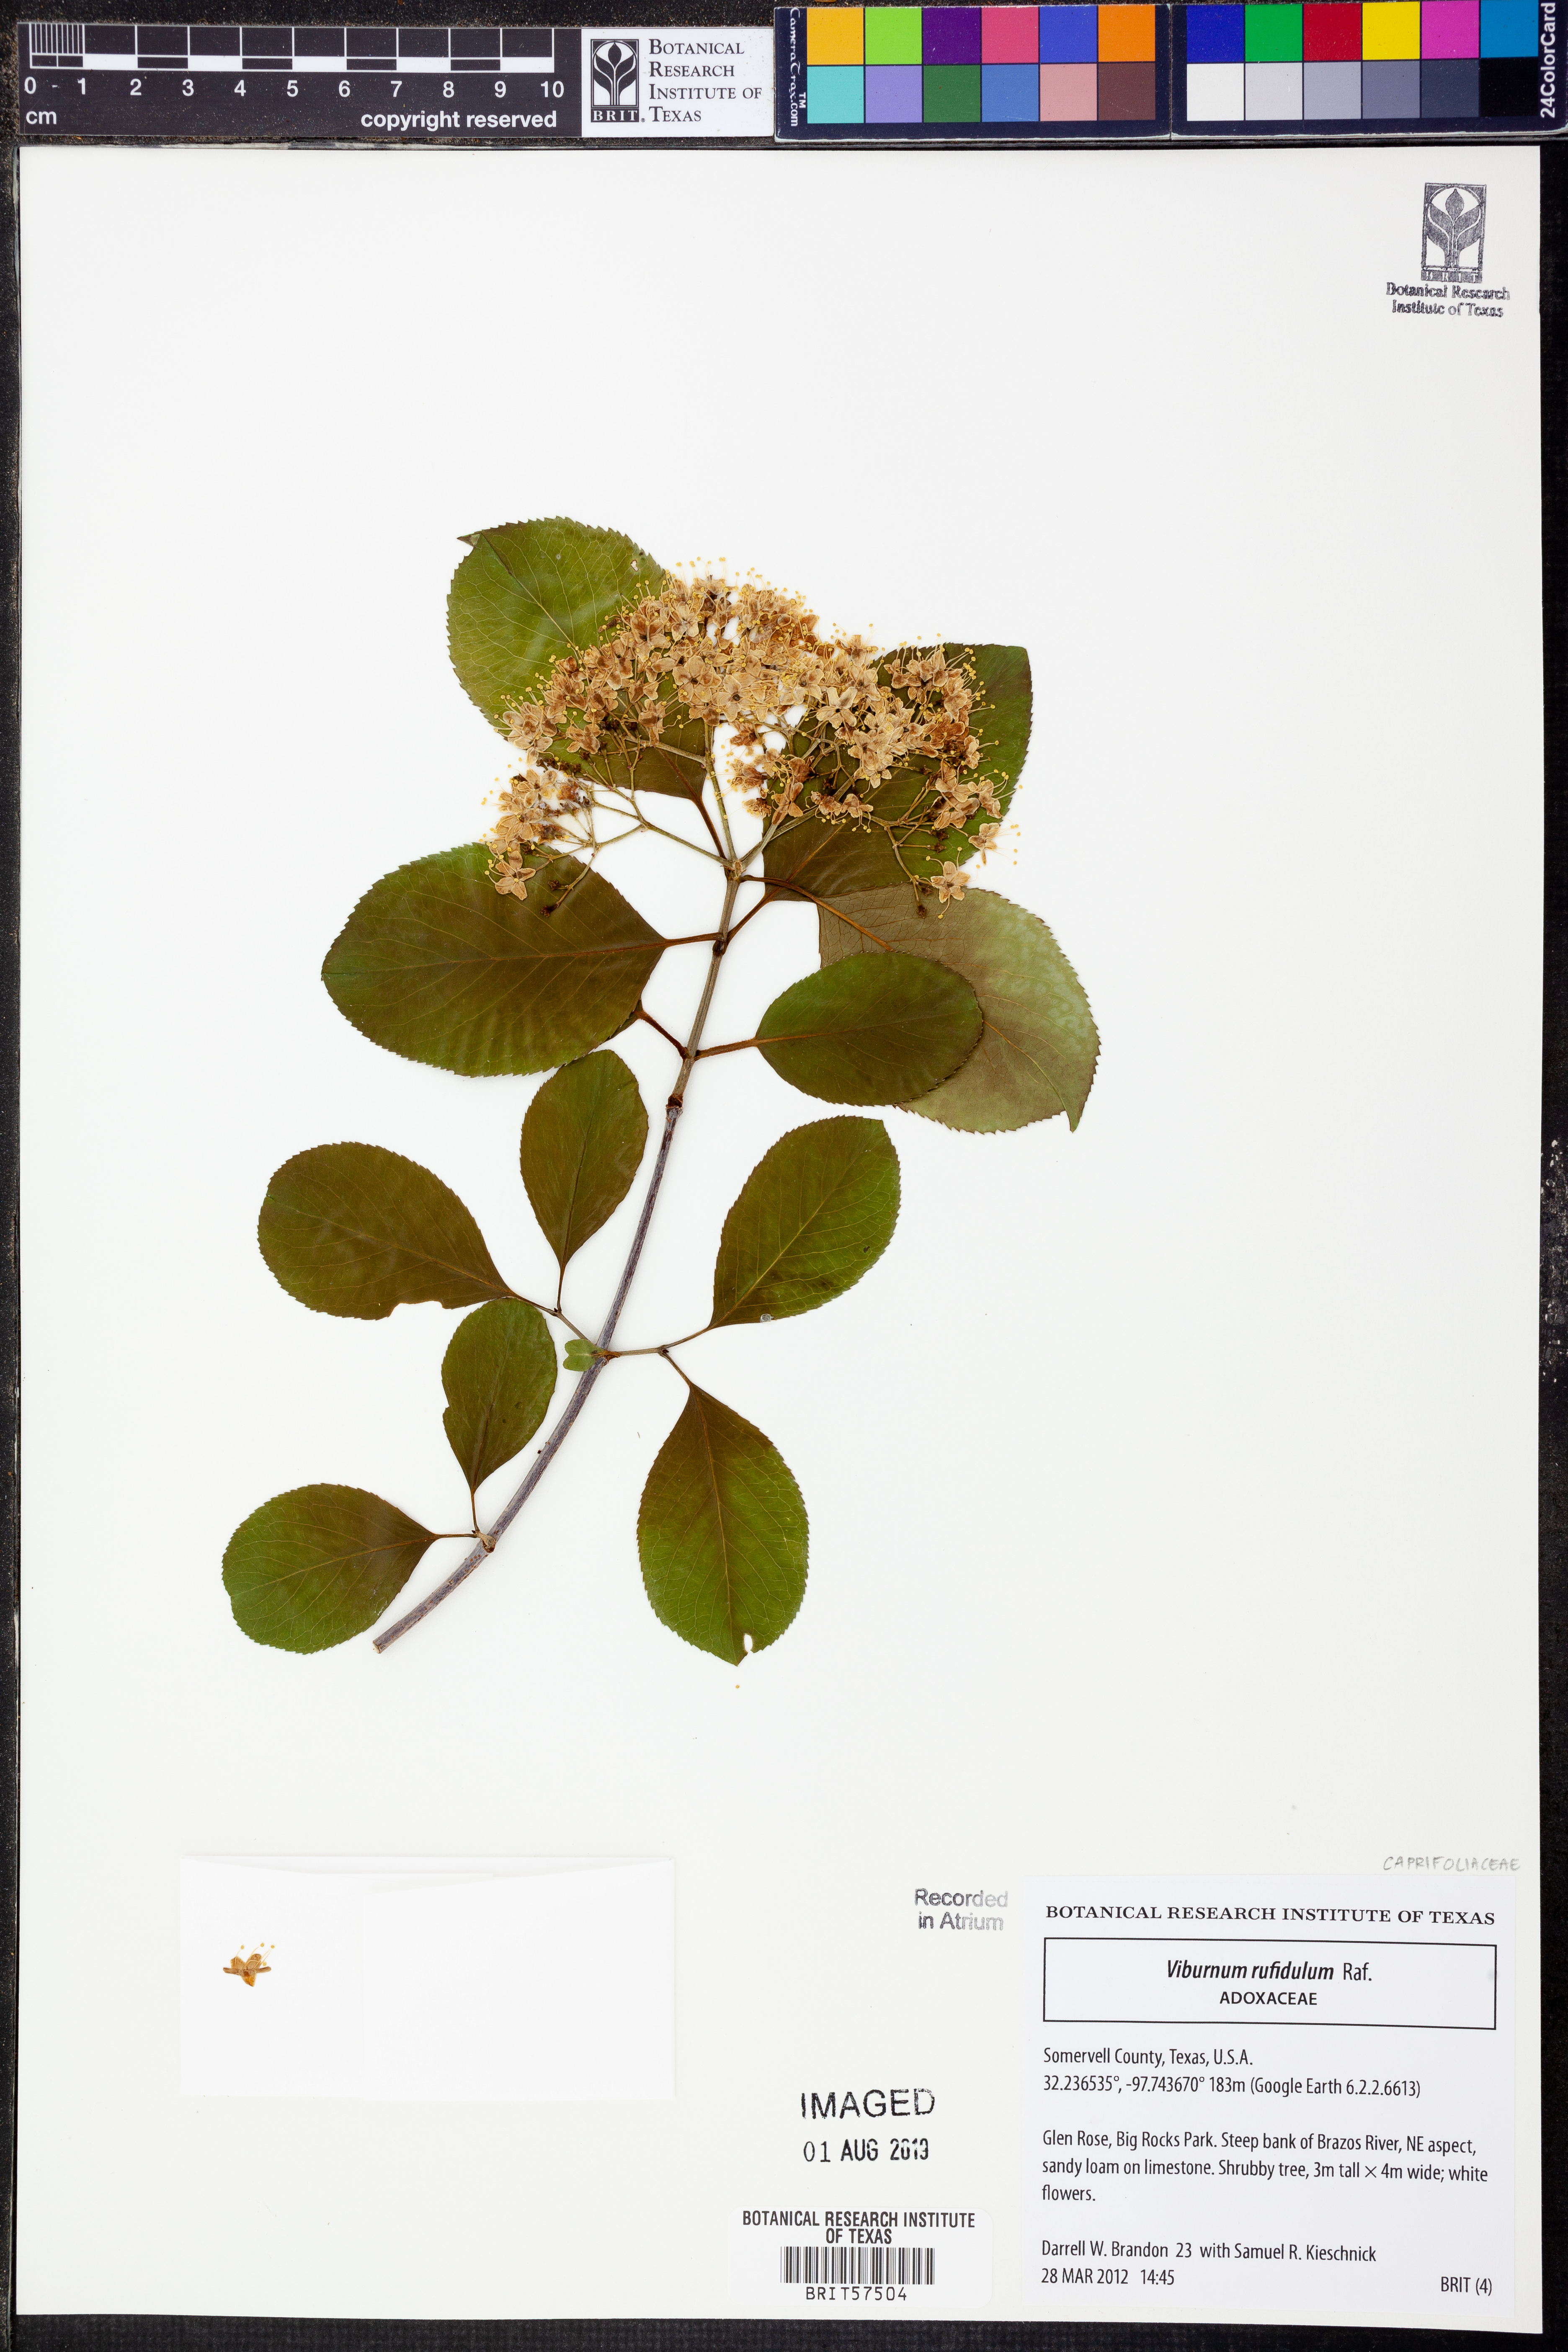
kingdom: Plantae
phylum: Tracheophyta
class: Magnoliopsida
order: Dipsacales
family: Viburnaceae
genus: Viburnum
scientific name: Viburnum rufidulum
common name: Blue haw
